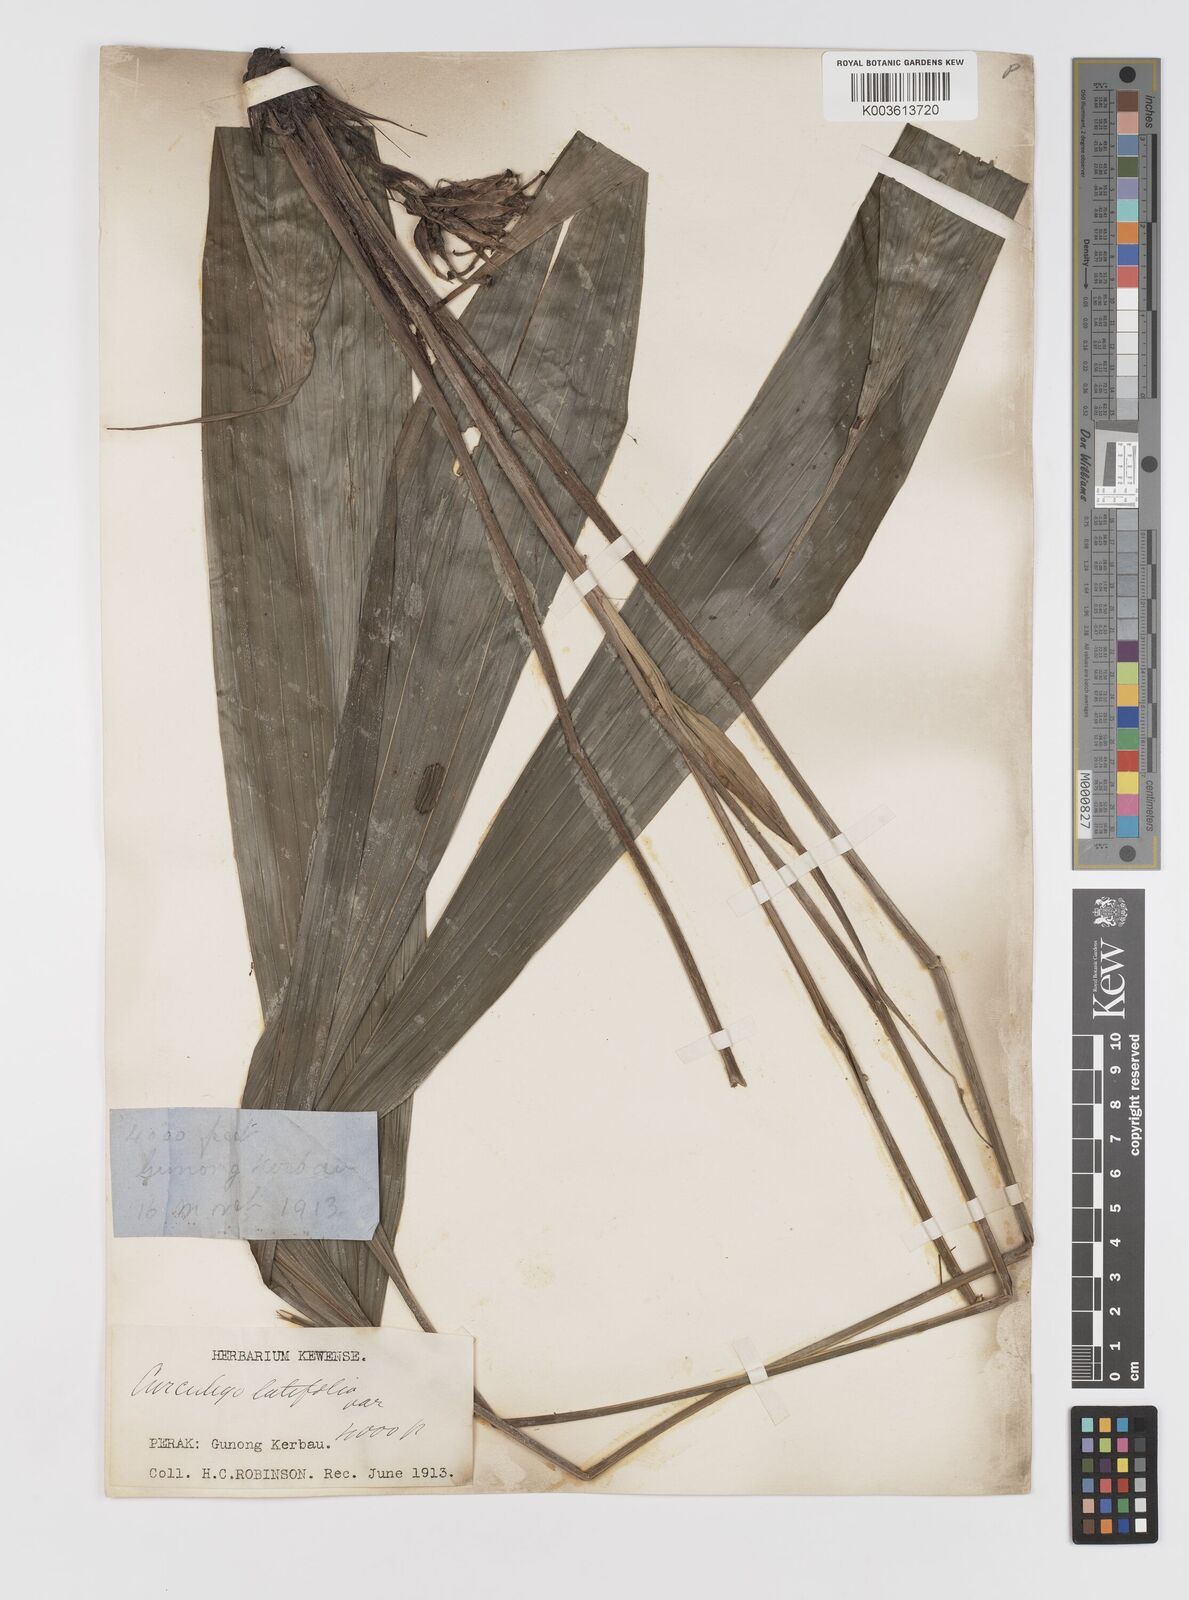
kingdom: Plantae
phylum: Tracheophyta
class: Liliopsida
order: Asparagales
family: Hypoxidaceae
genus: Curculigo
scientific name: Curculigo latifolia
